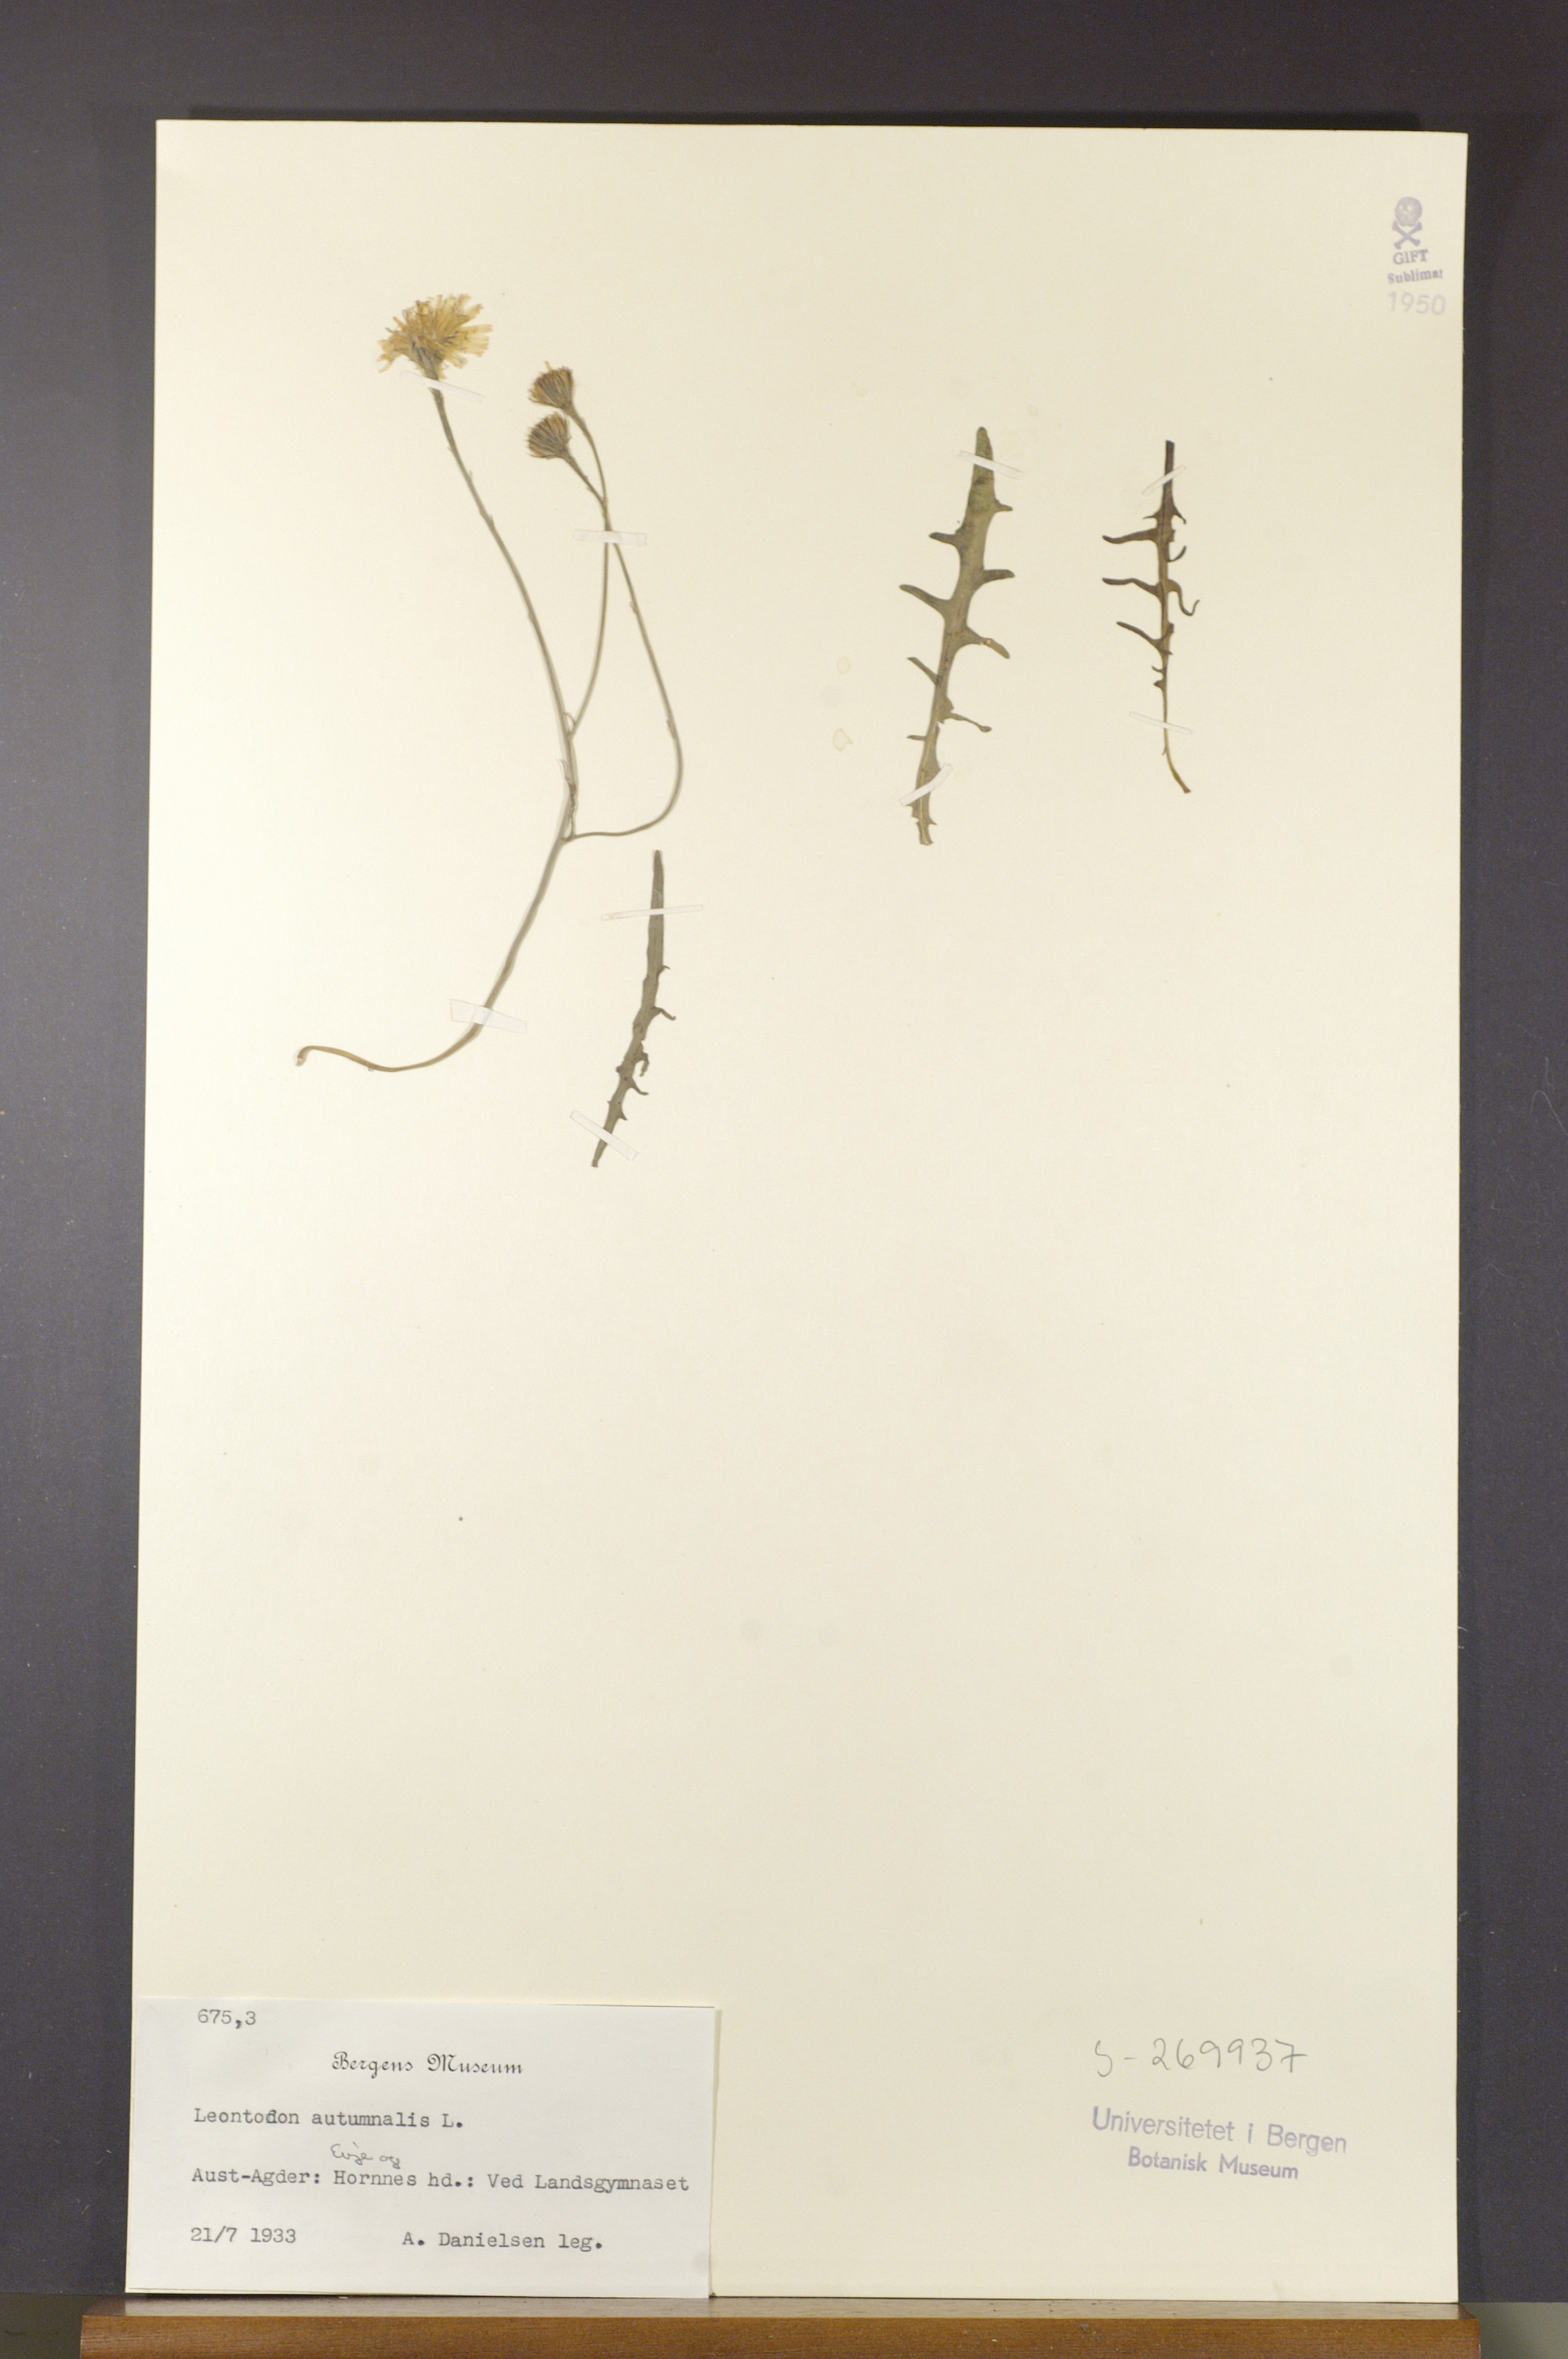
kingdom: Plantae
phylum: Tracheophyta
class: Magnoliopsida
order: Asterales
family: Asteraceae
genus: Scorzoneroides
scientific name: Scorzoneroides autumnalis
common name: Autumn hawkbit
